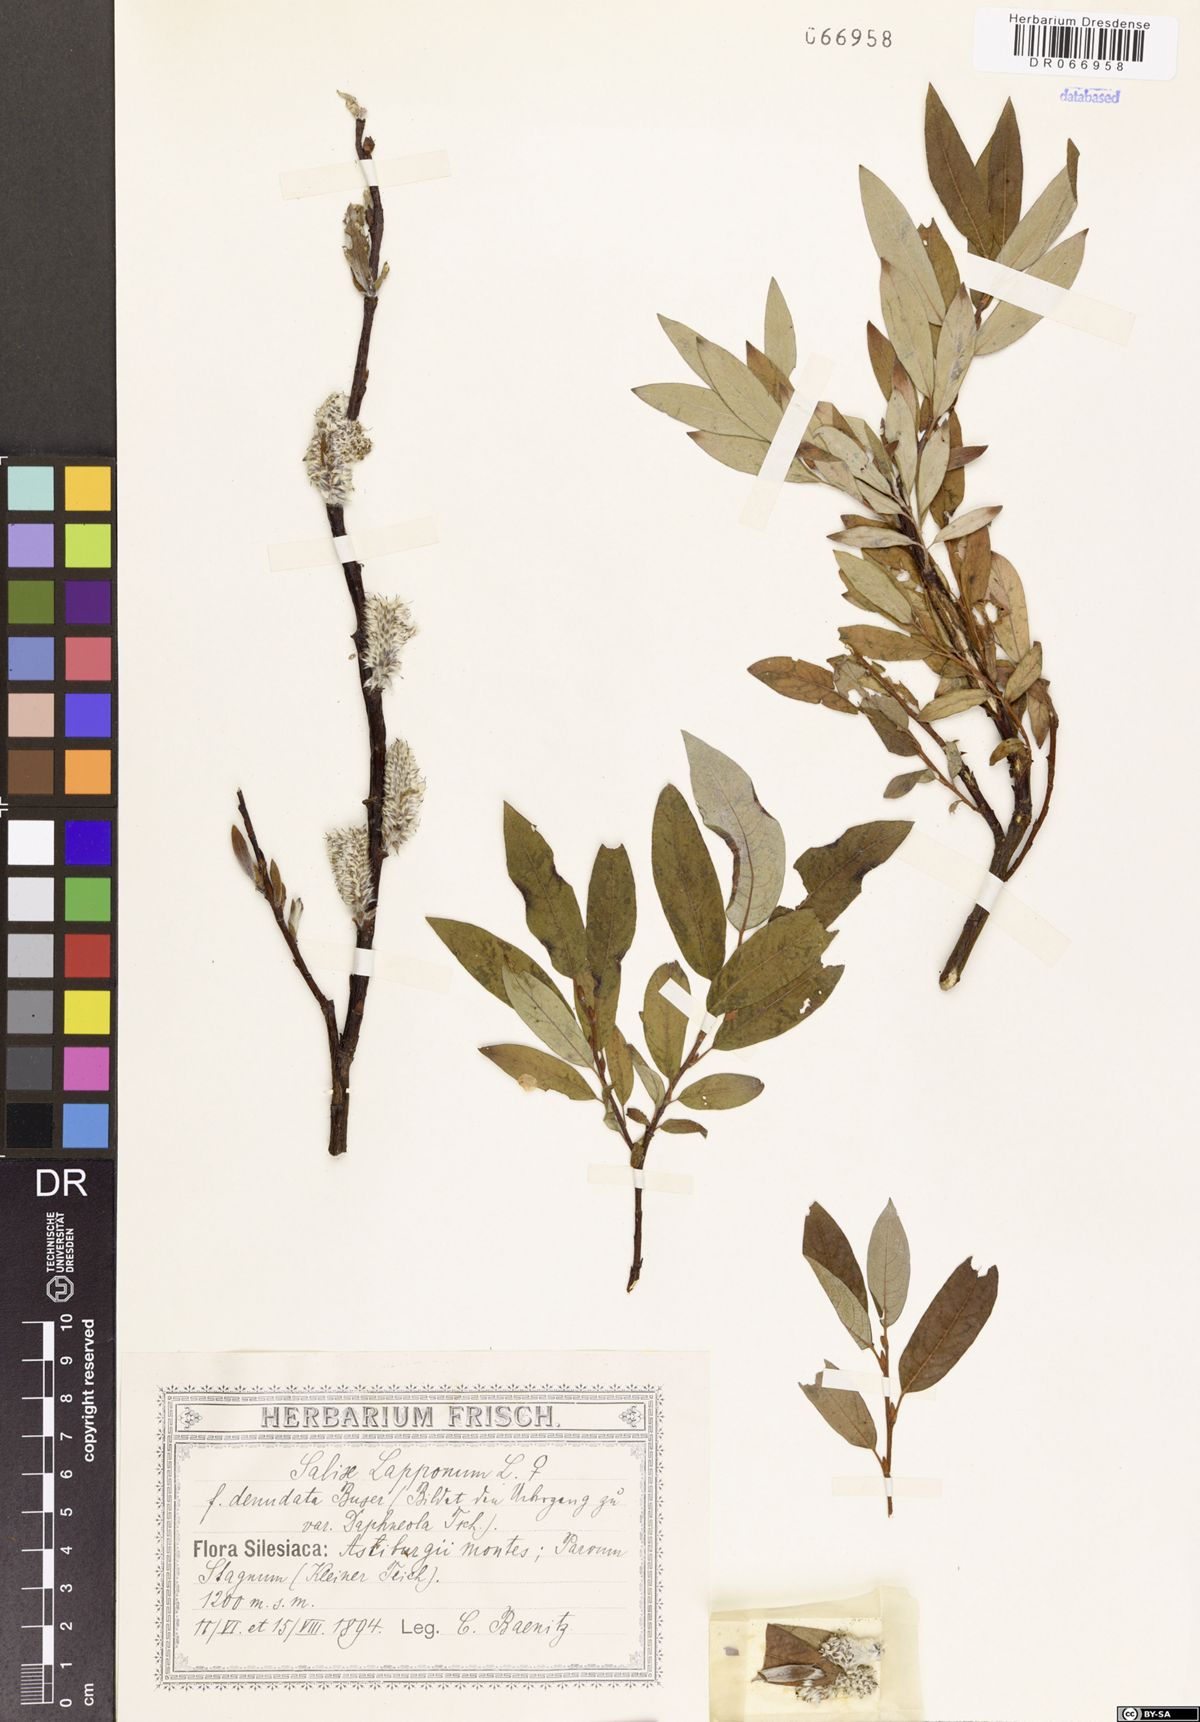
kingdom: Plantae
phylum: Tracheophyta
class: Magnoliopsida
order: Malpighiales
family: Salicaceae
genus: Salix
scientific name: Salix lapponum
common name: Downy willow
